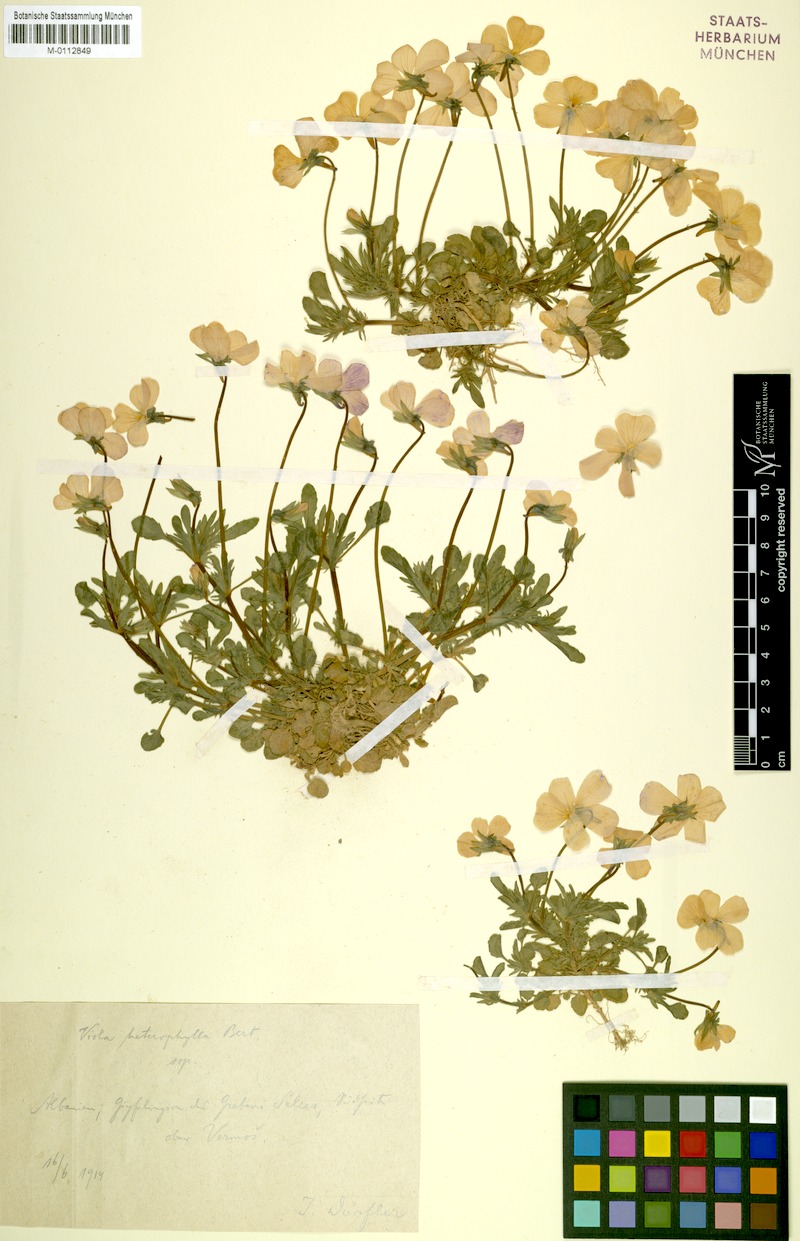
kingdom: Plantae
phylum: Tracheophyta
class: Magnoliopsida
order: Malpighiales
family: Violaceae
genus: Viola
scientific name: Viola skanderbegii
